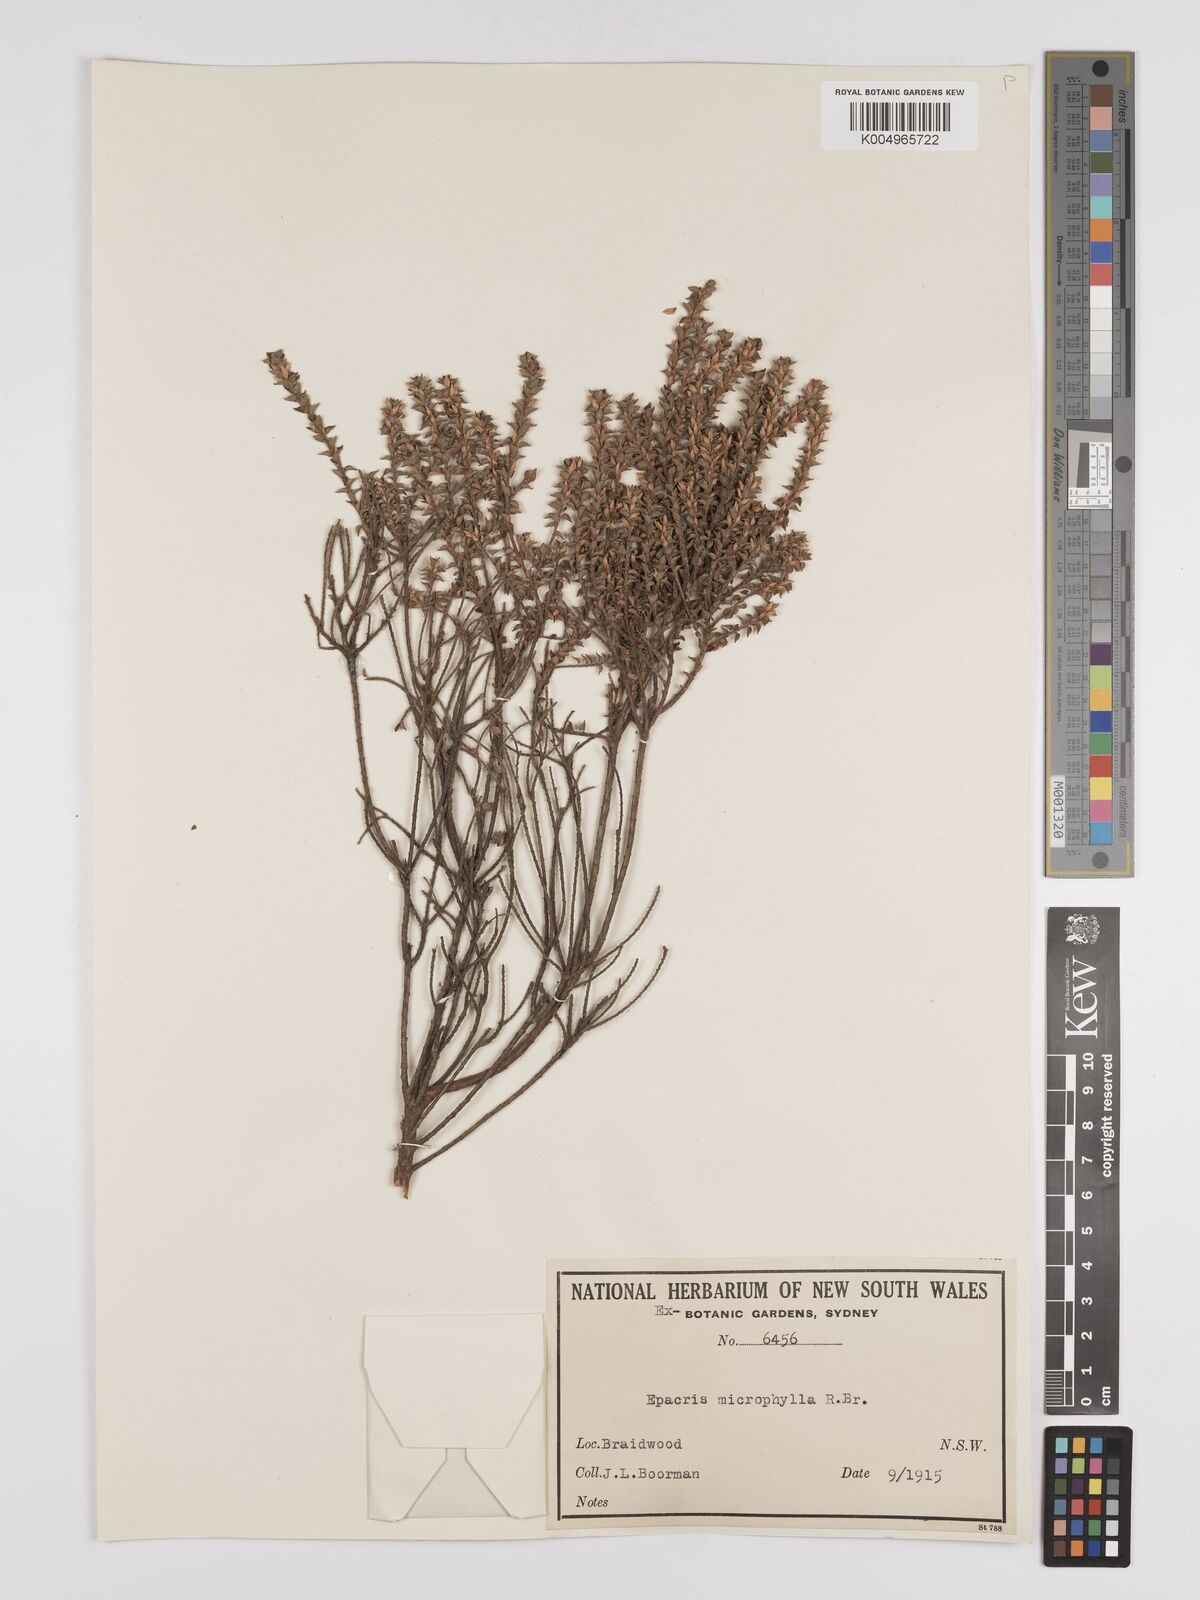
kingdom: Plantae
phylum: Tracheophyta
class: Magnoliopsida
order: Ericales
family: Ericaceae
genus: Epacris
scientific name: Epacris
